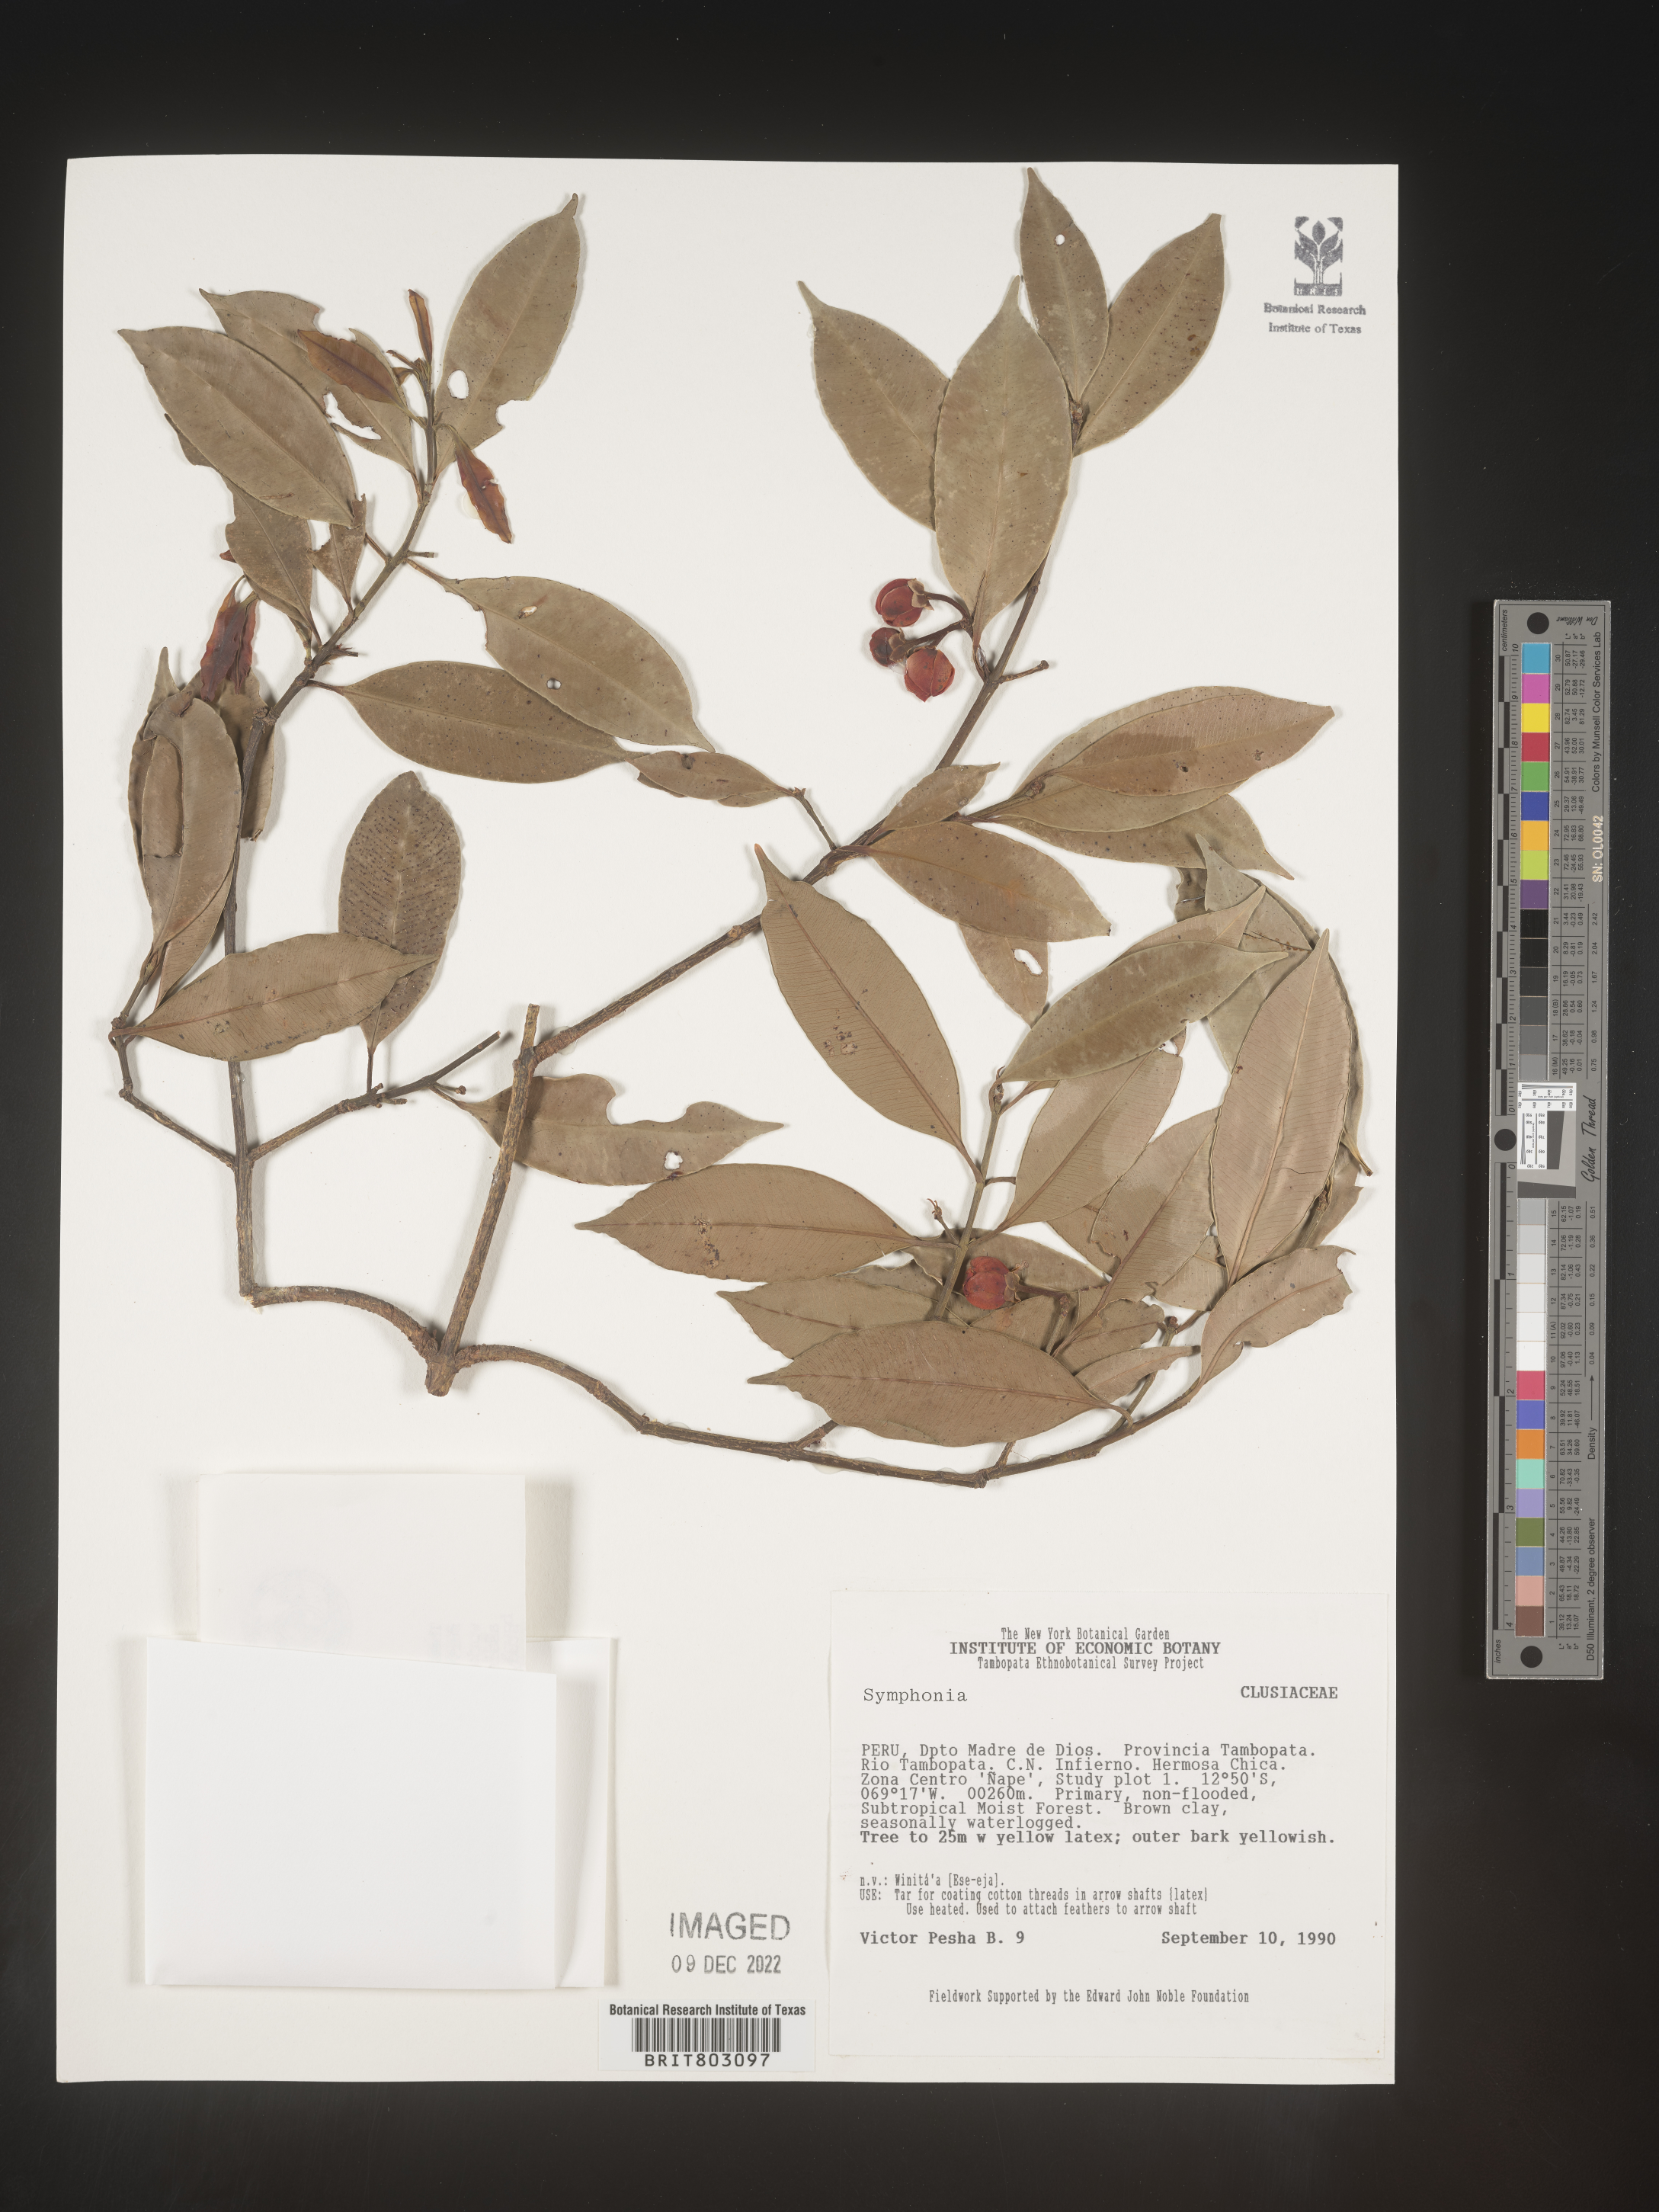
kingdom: Plantae
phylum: Tracheophyta
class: Magnoliopsida
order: Malpighiales
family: Clusiaceae
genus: Symphonia
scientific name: Symphonia
